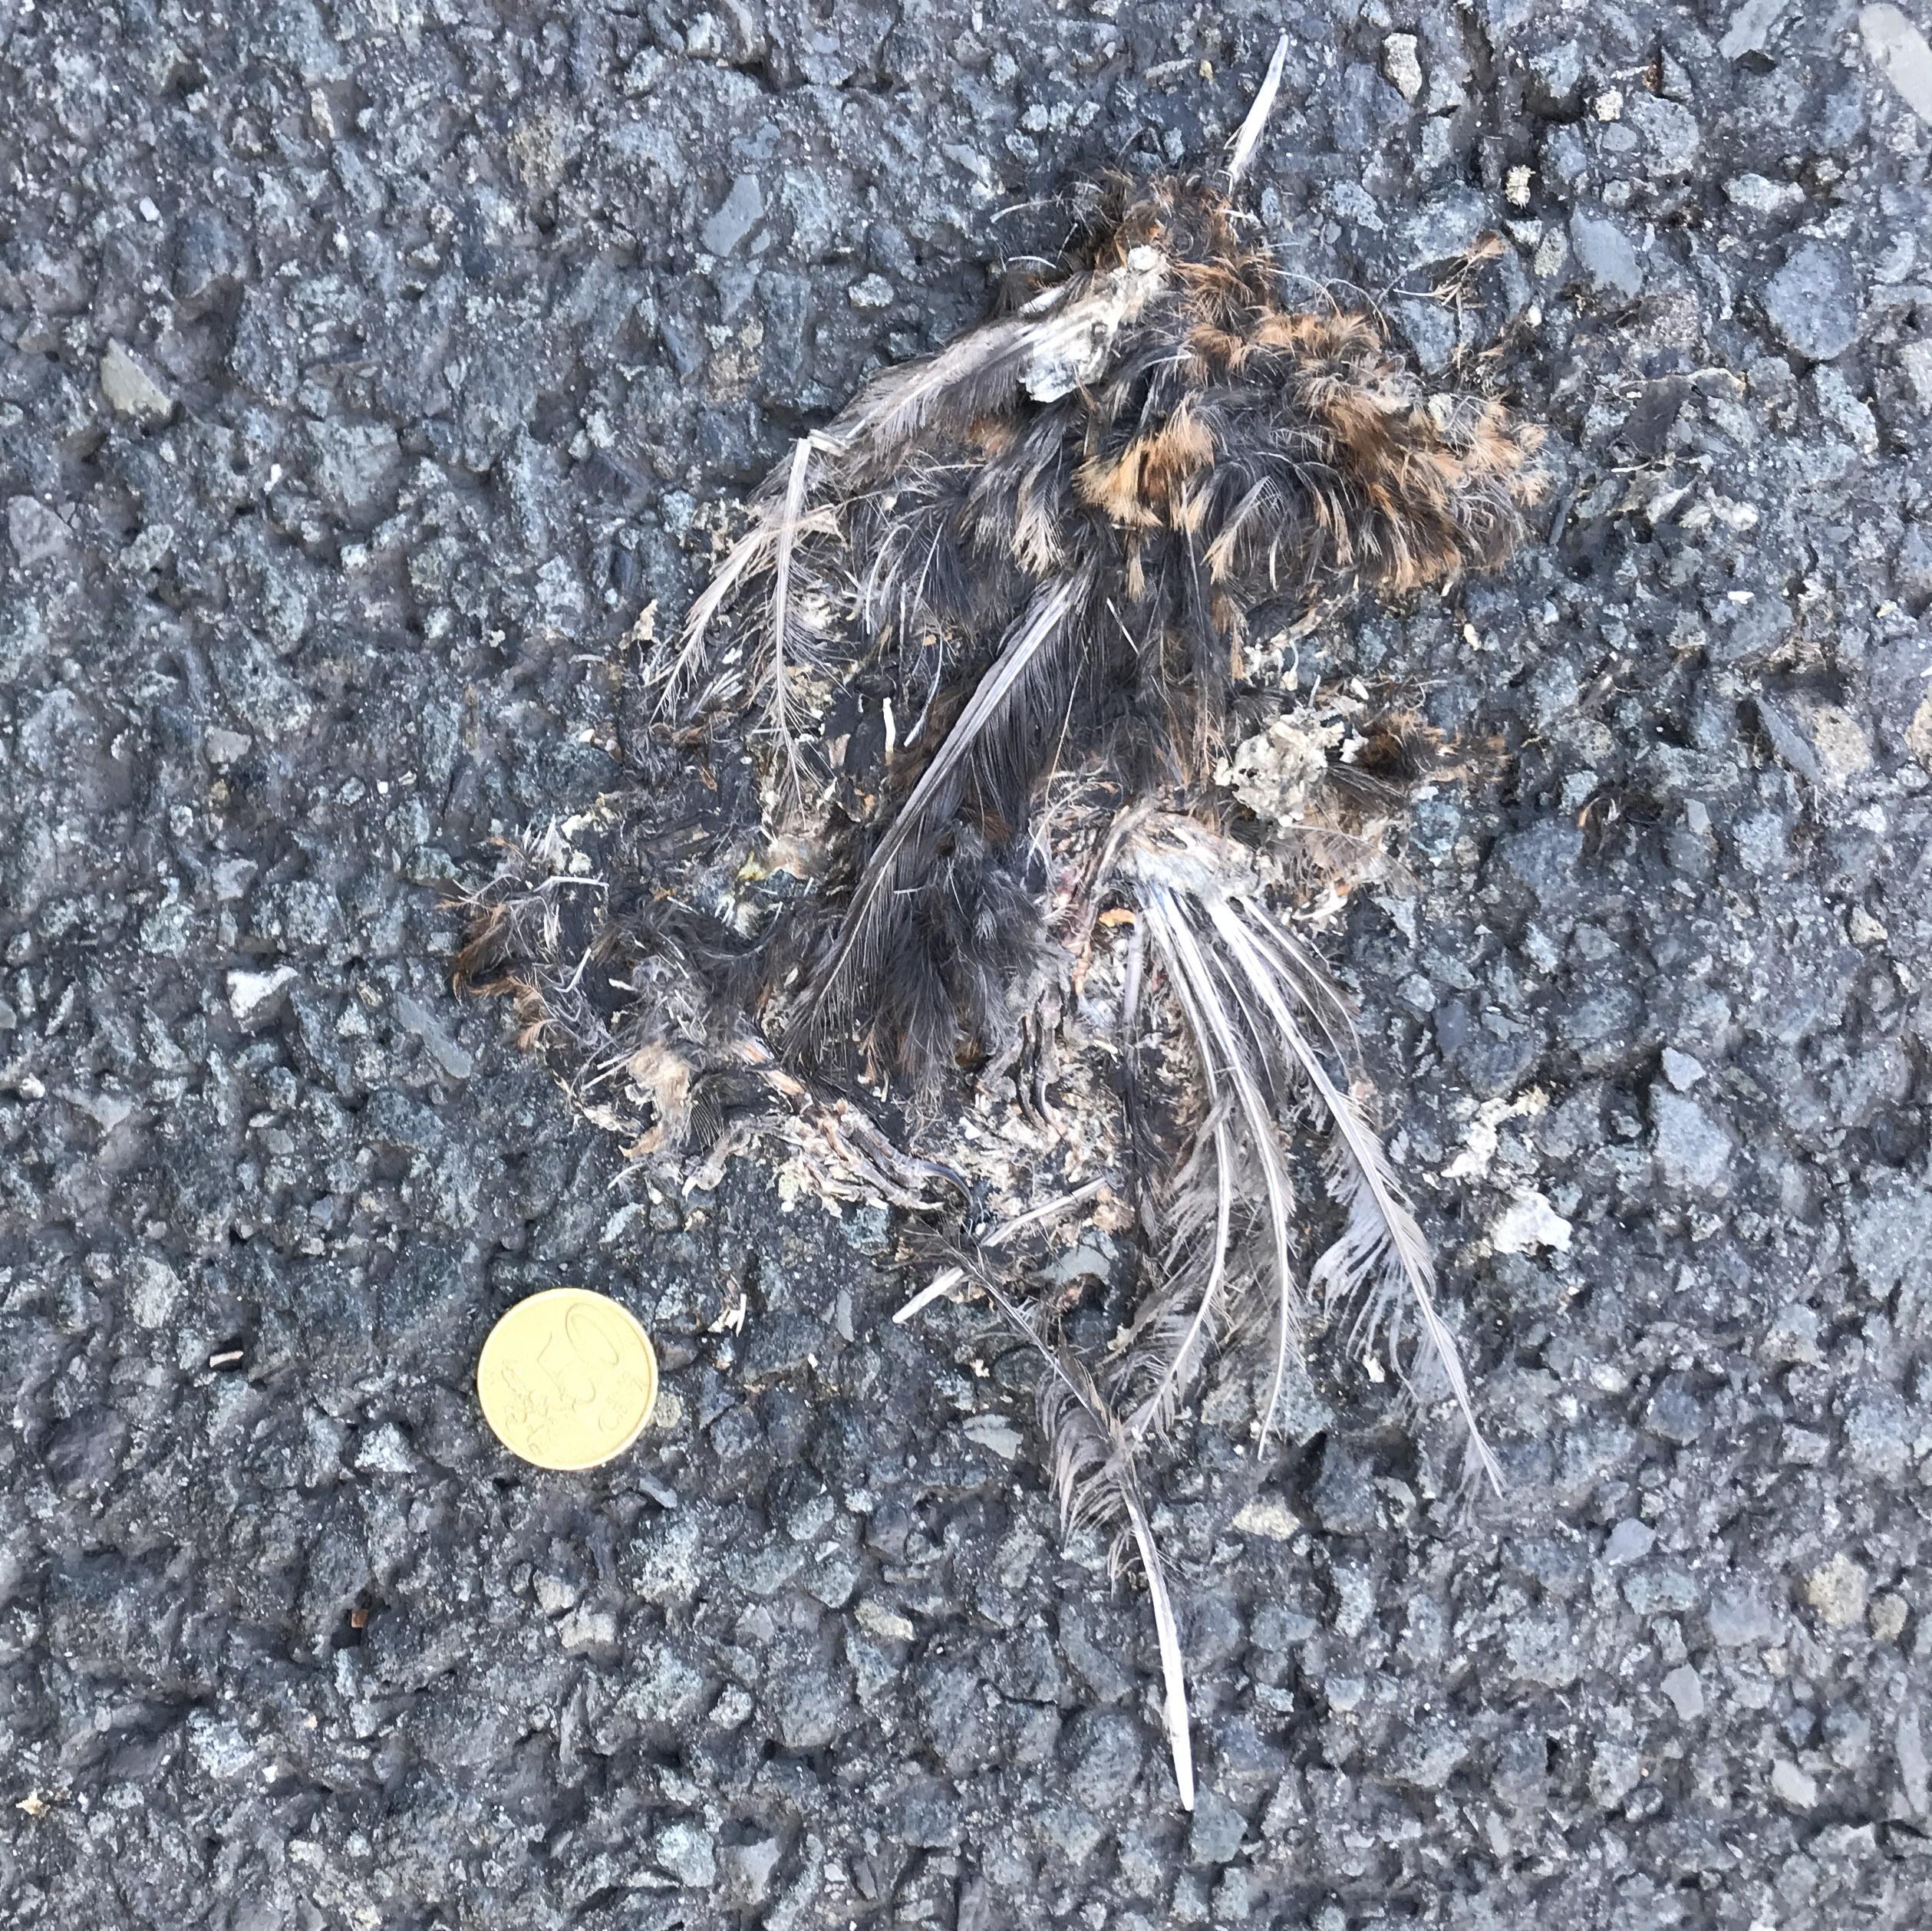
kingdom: Animalia
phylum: Chordata
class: Aves
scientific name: Aves
